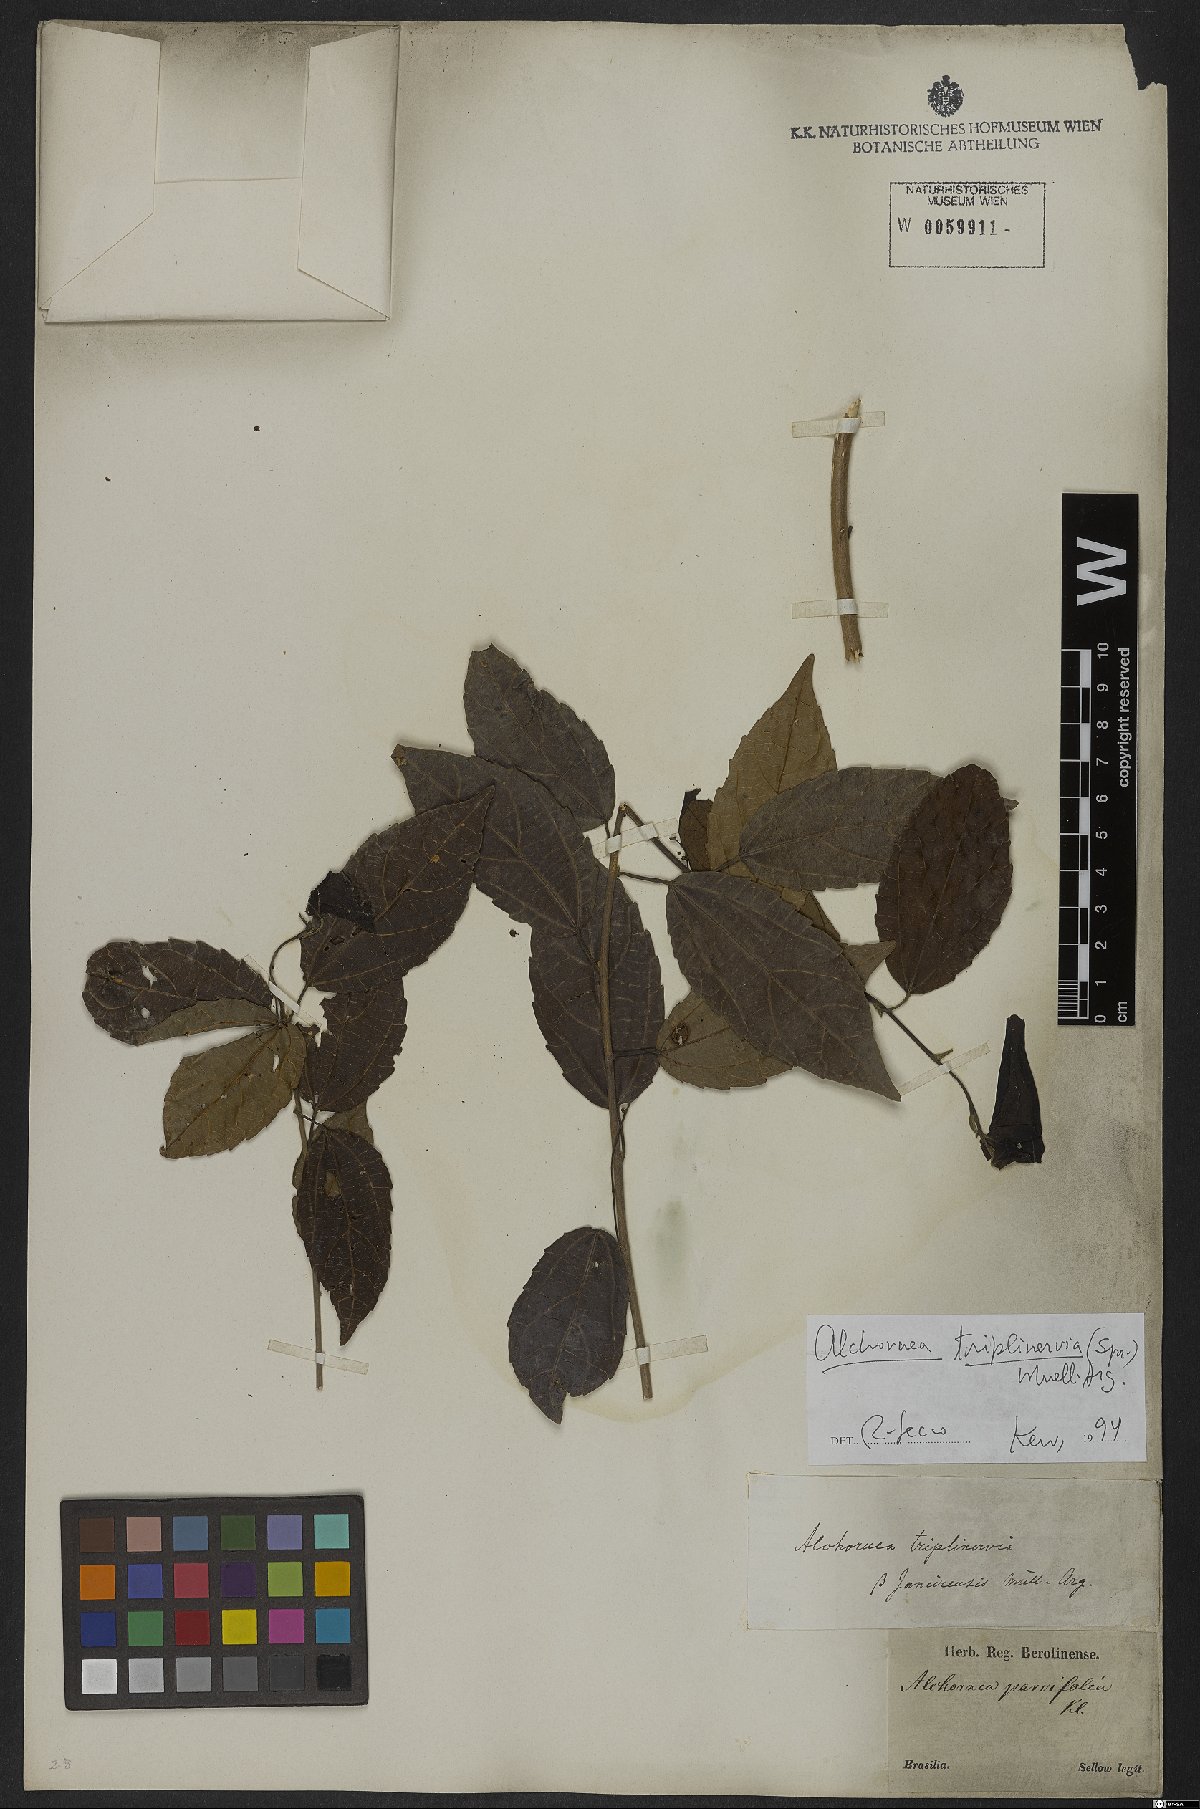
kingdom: Plantae
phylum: Tracheophyta
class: Magnoliopsida
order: Malpighiales
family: Euphorbiaceae
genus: Alchornea
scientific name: Alchornea triplinervia
